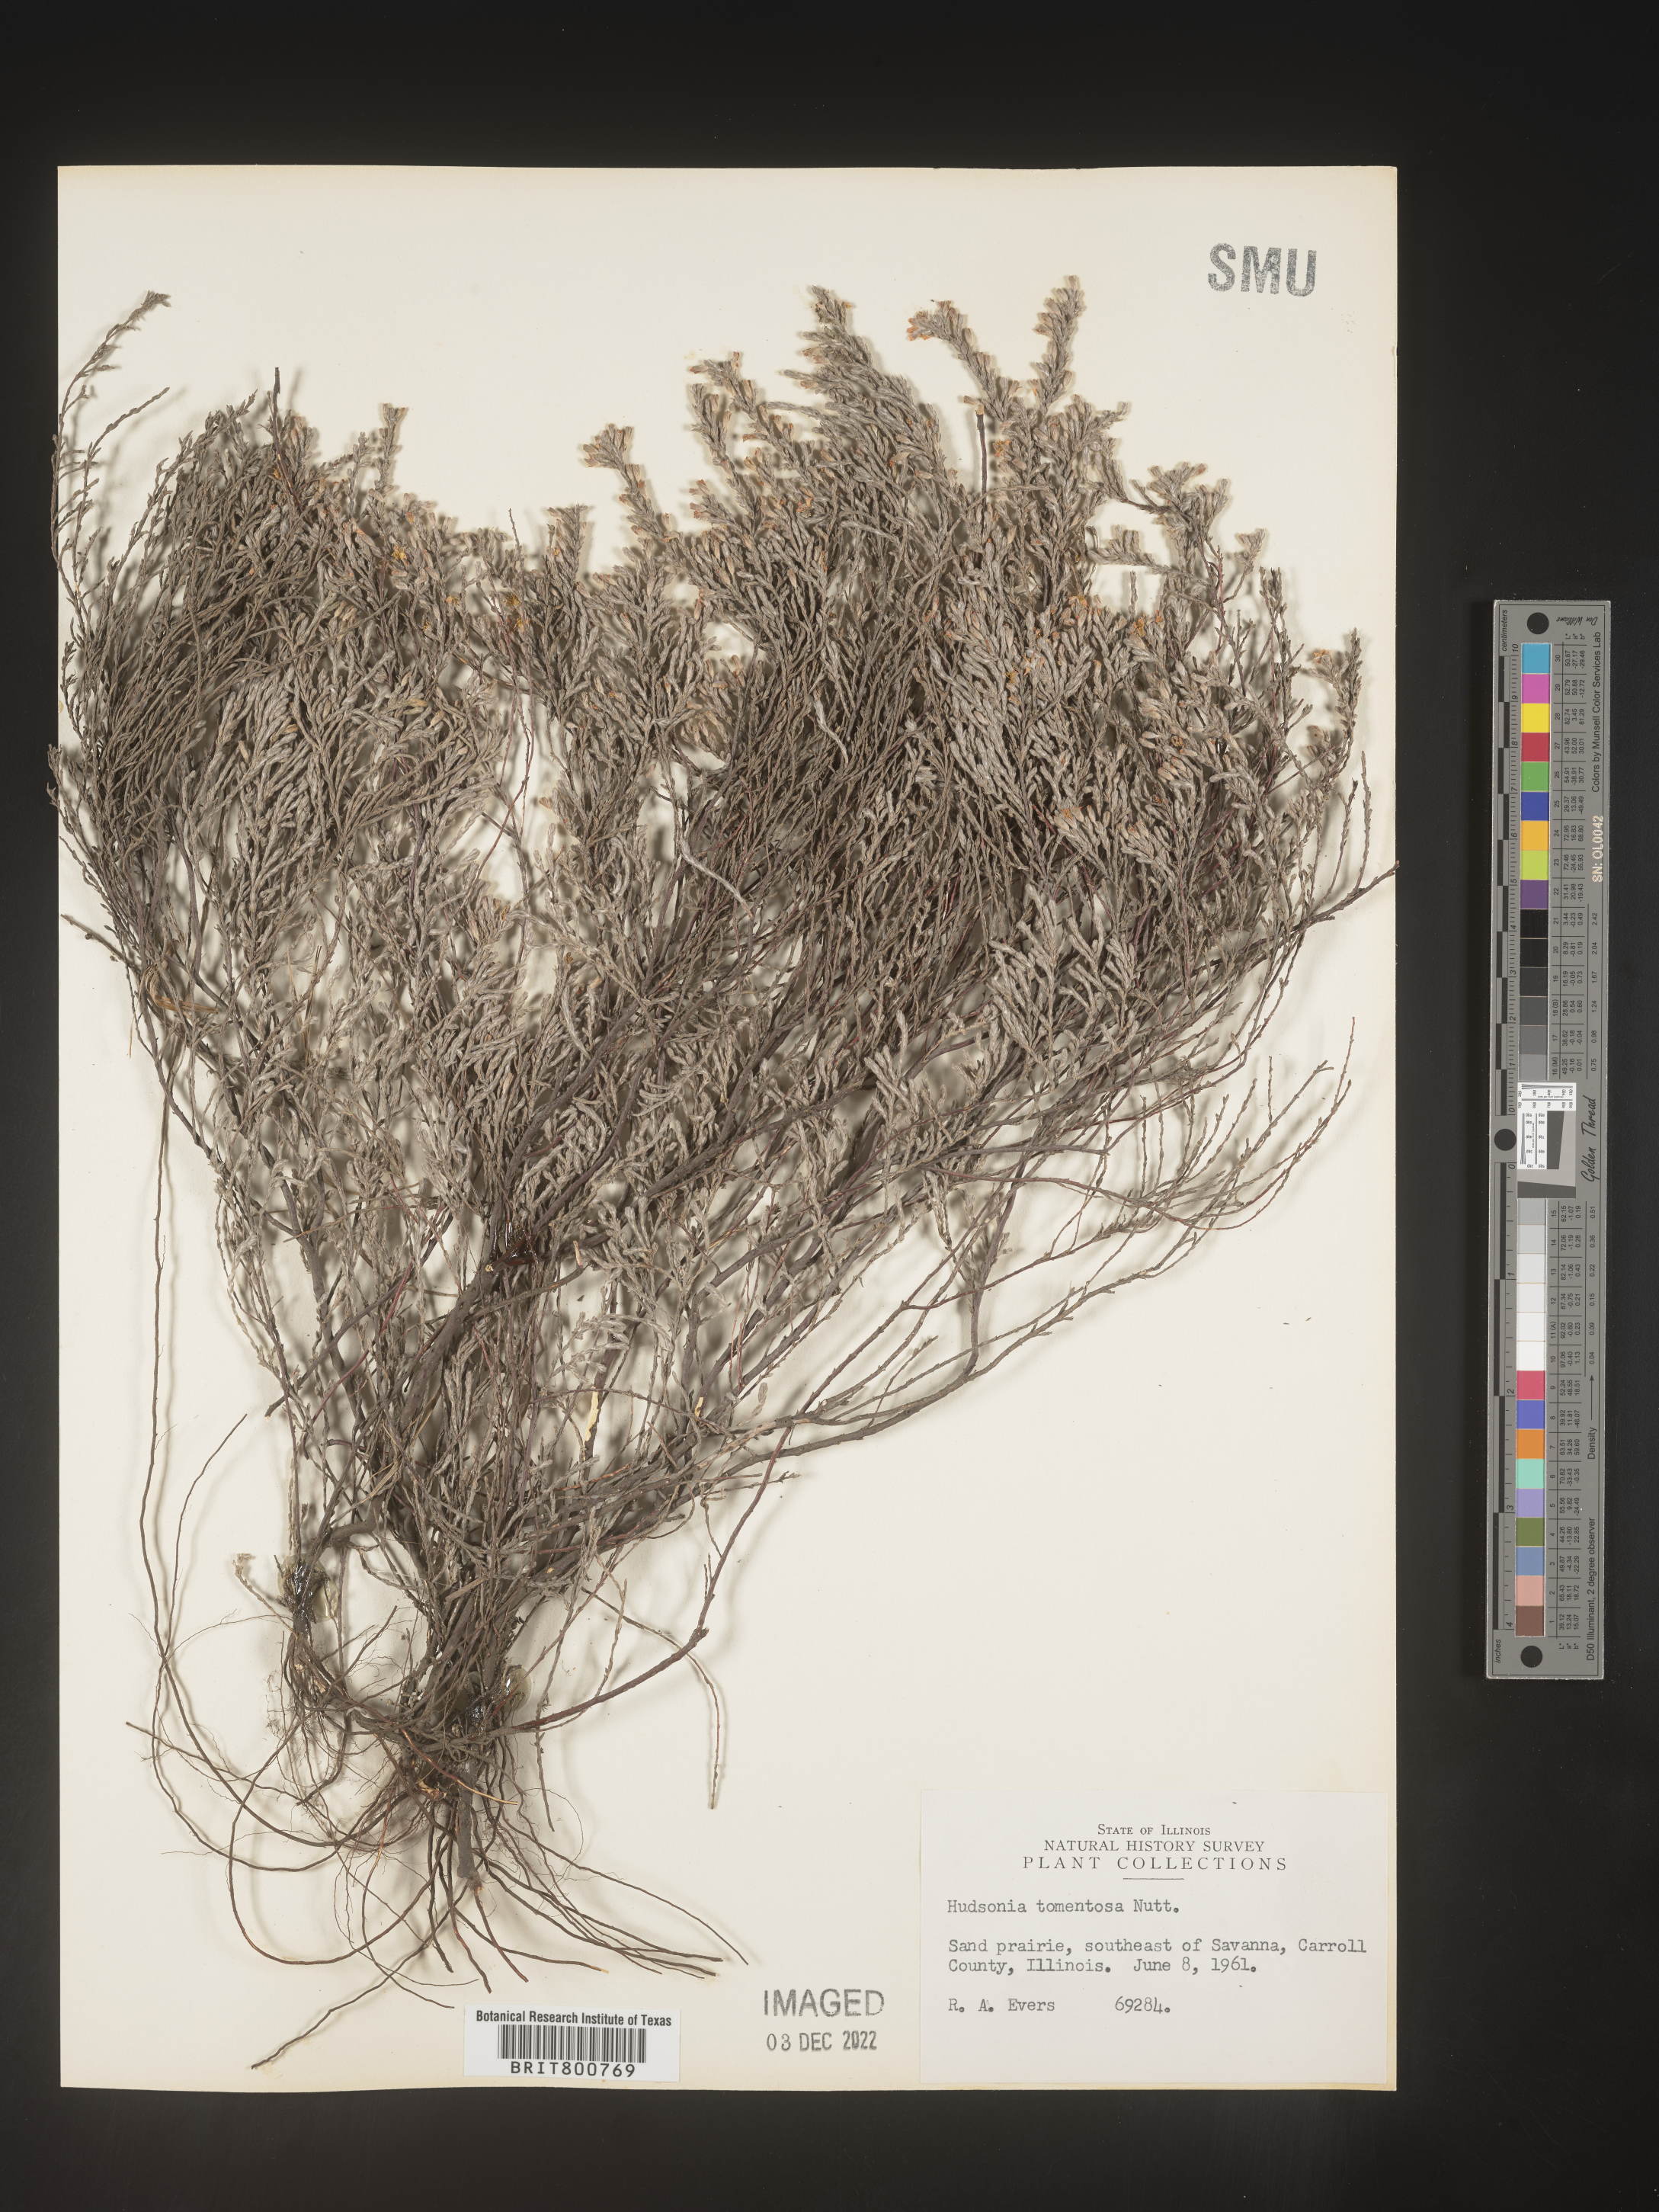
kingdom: Plantae
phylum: Tracheophyta
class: Magnoliopsida
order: Malvales
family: Cistaceae
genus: Hudsonia
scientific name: Hudsonia tomentosa
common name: Beach-heath
